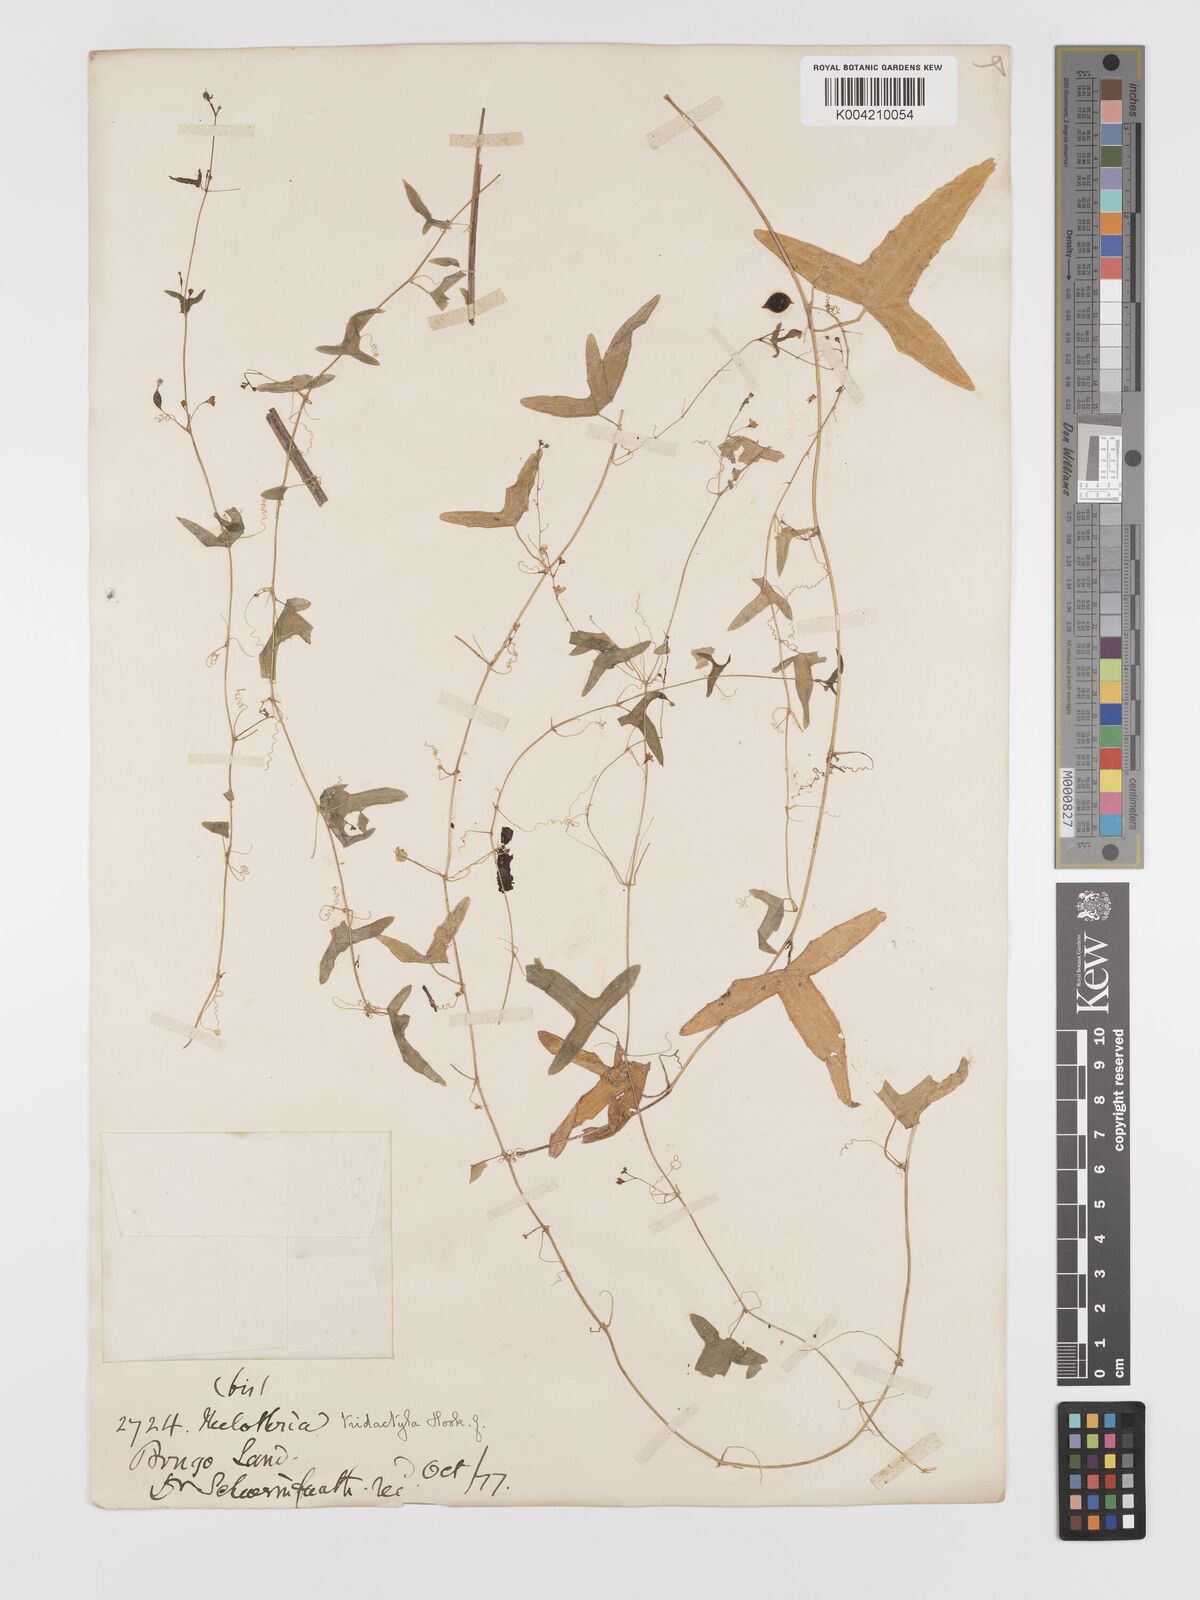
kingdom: Plantae
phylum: Tracheophyta
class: Magnoliopsida
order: Cucurbitales
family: Cucurbitaceae
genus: Zehneria
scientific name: Zehneria thwaitesii
